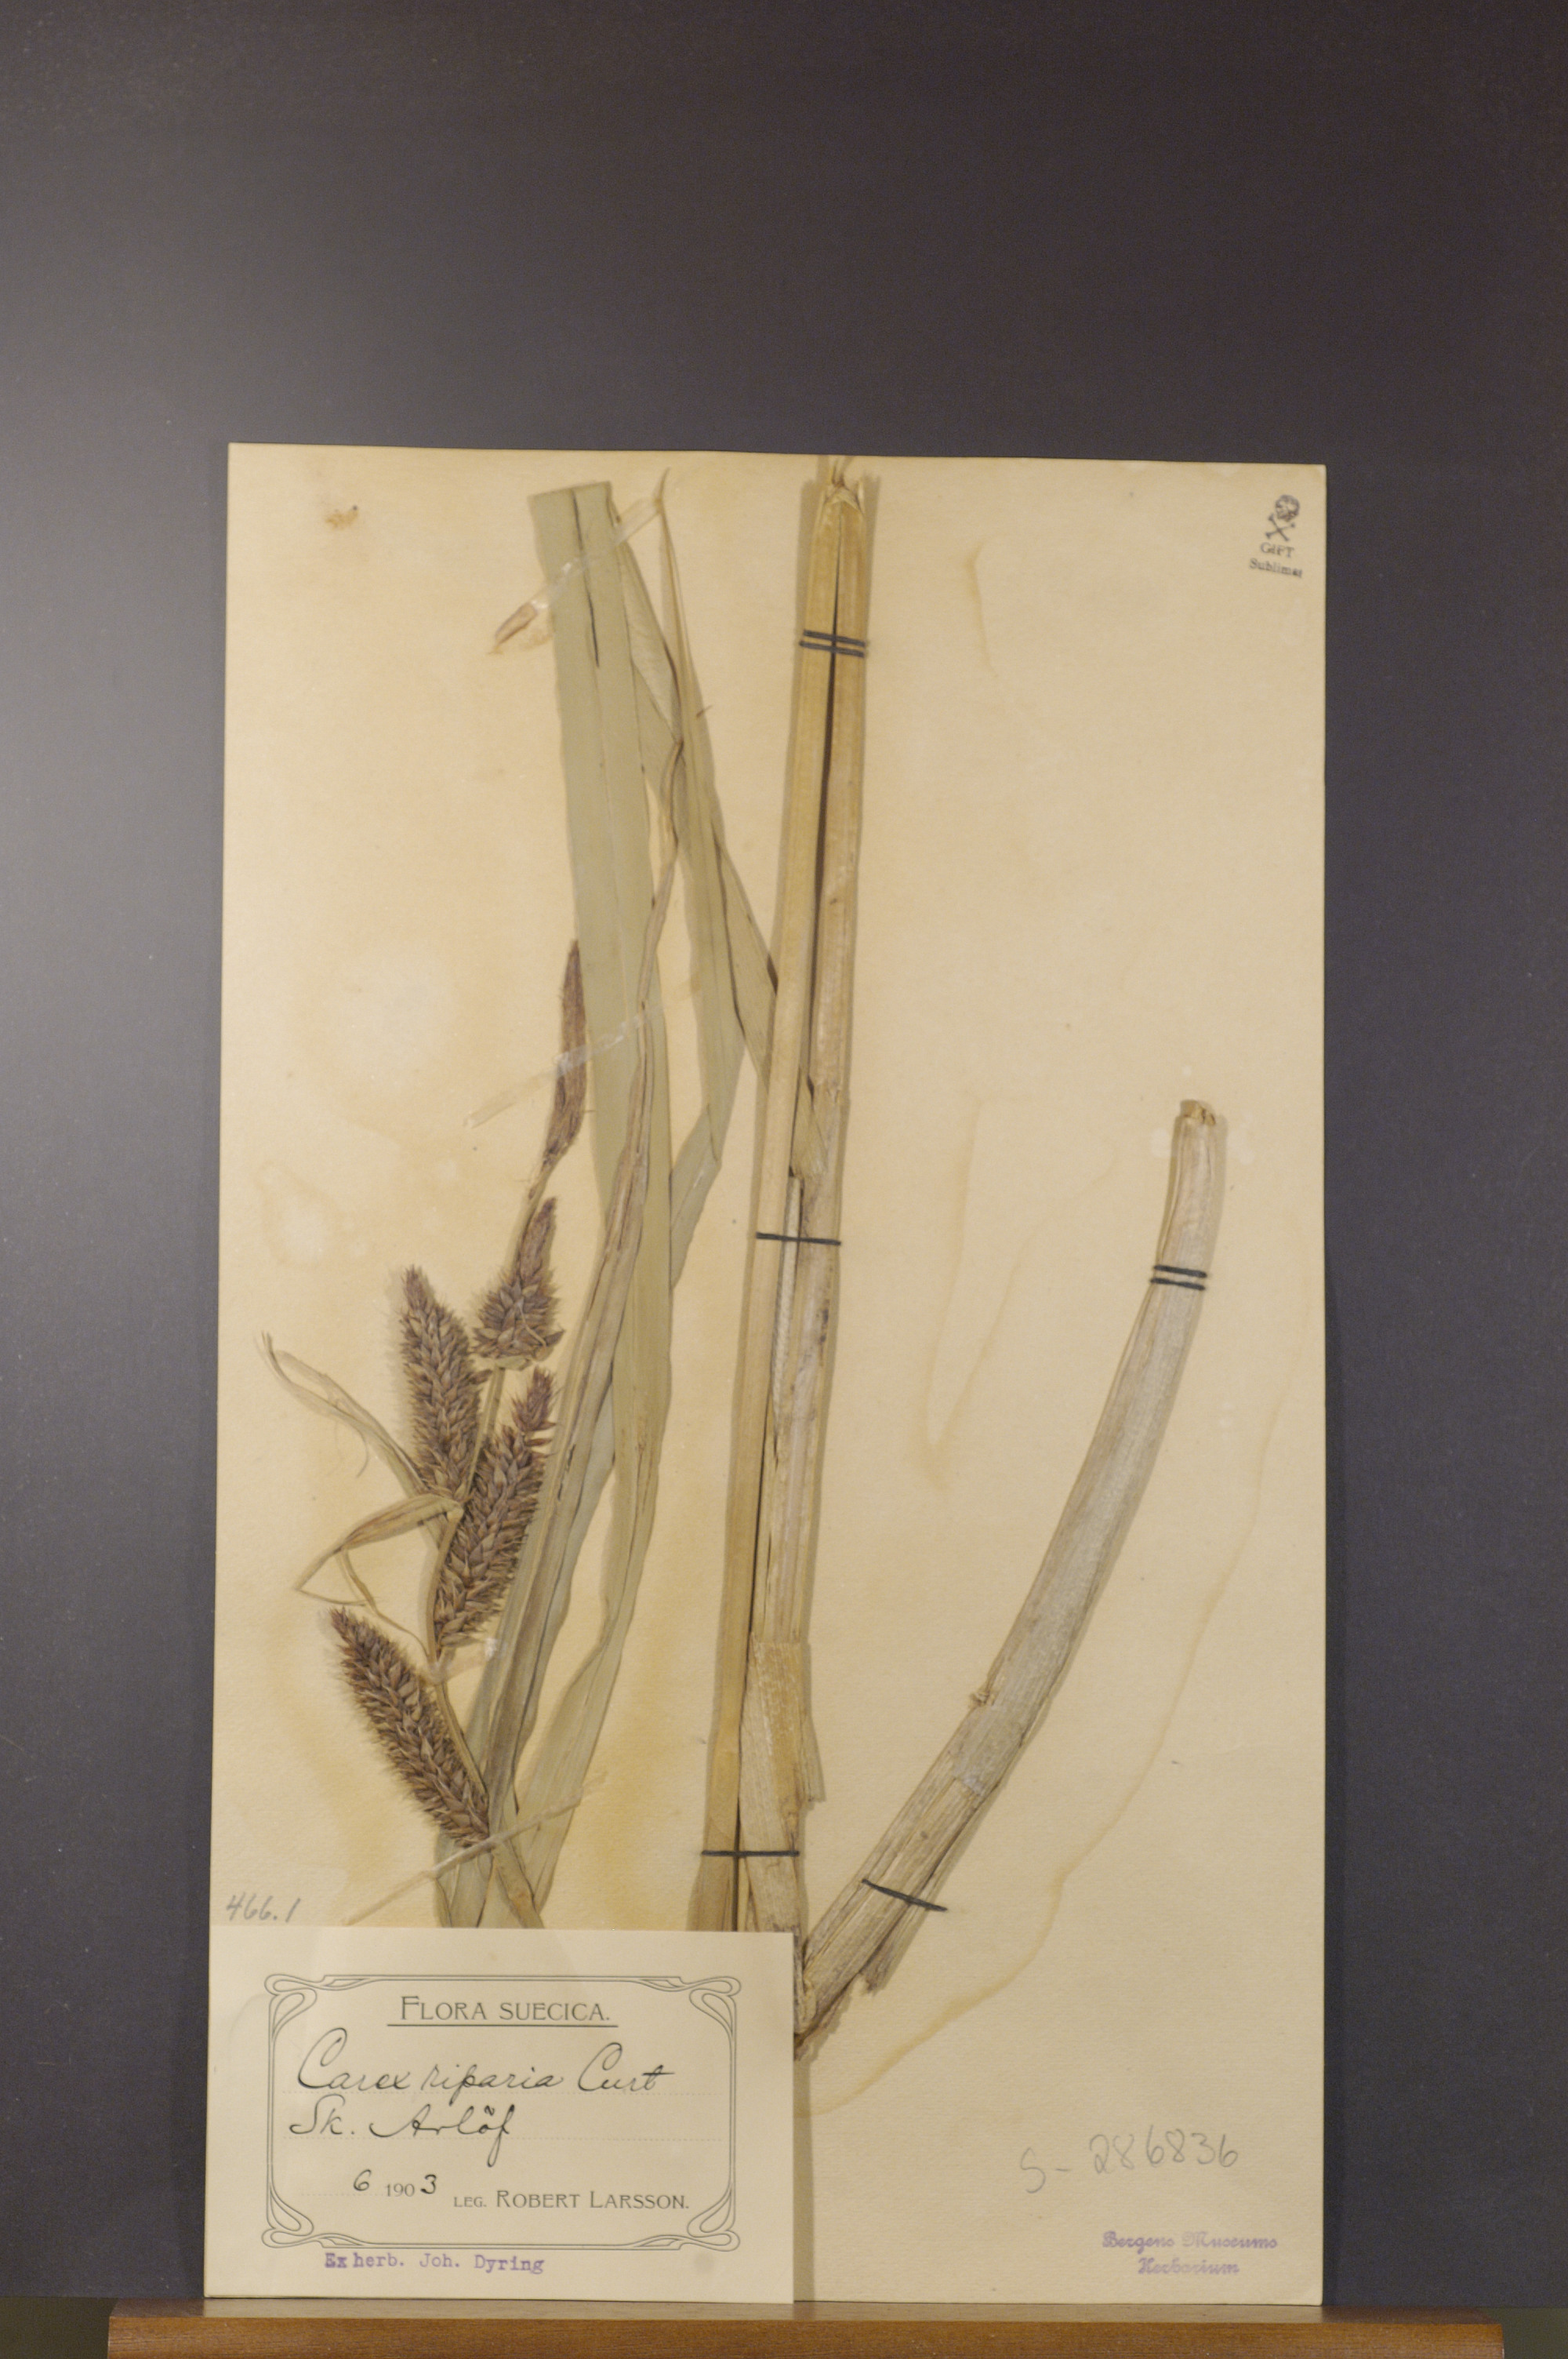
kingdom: Plantae
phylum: Tracheophyta
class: Liliopsida
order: Poales
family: Cyperaceae
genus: Carex
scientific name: Carex riparia
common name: Greater pond-sedge
